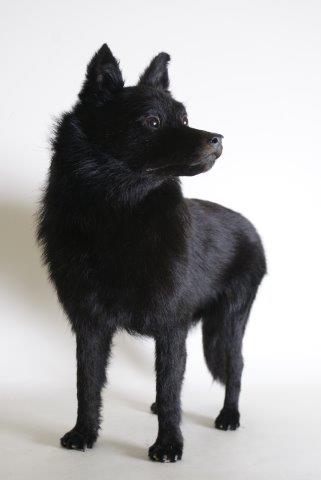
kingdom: Animalia
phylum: Chordata
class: Mammalia
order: Carnivora
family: Canidae
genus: Canis
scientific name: Canis lupus
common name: Gray wolf
